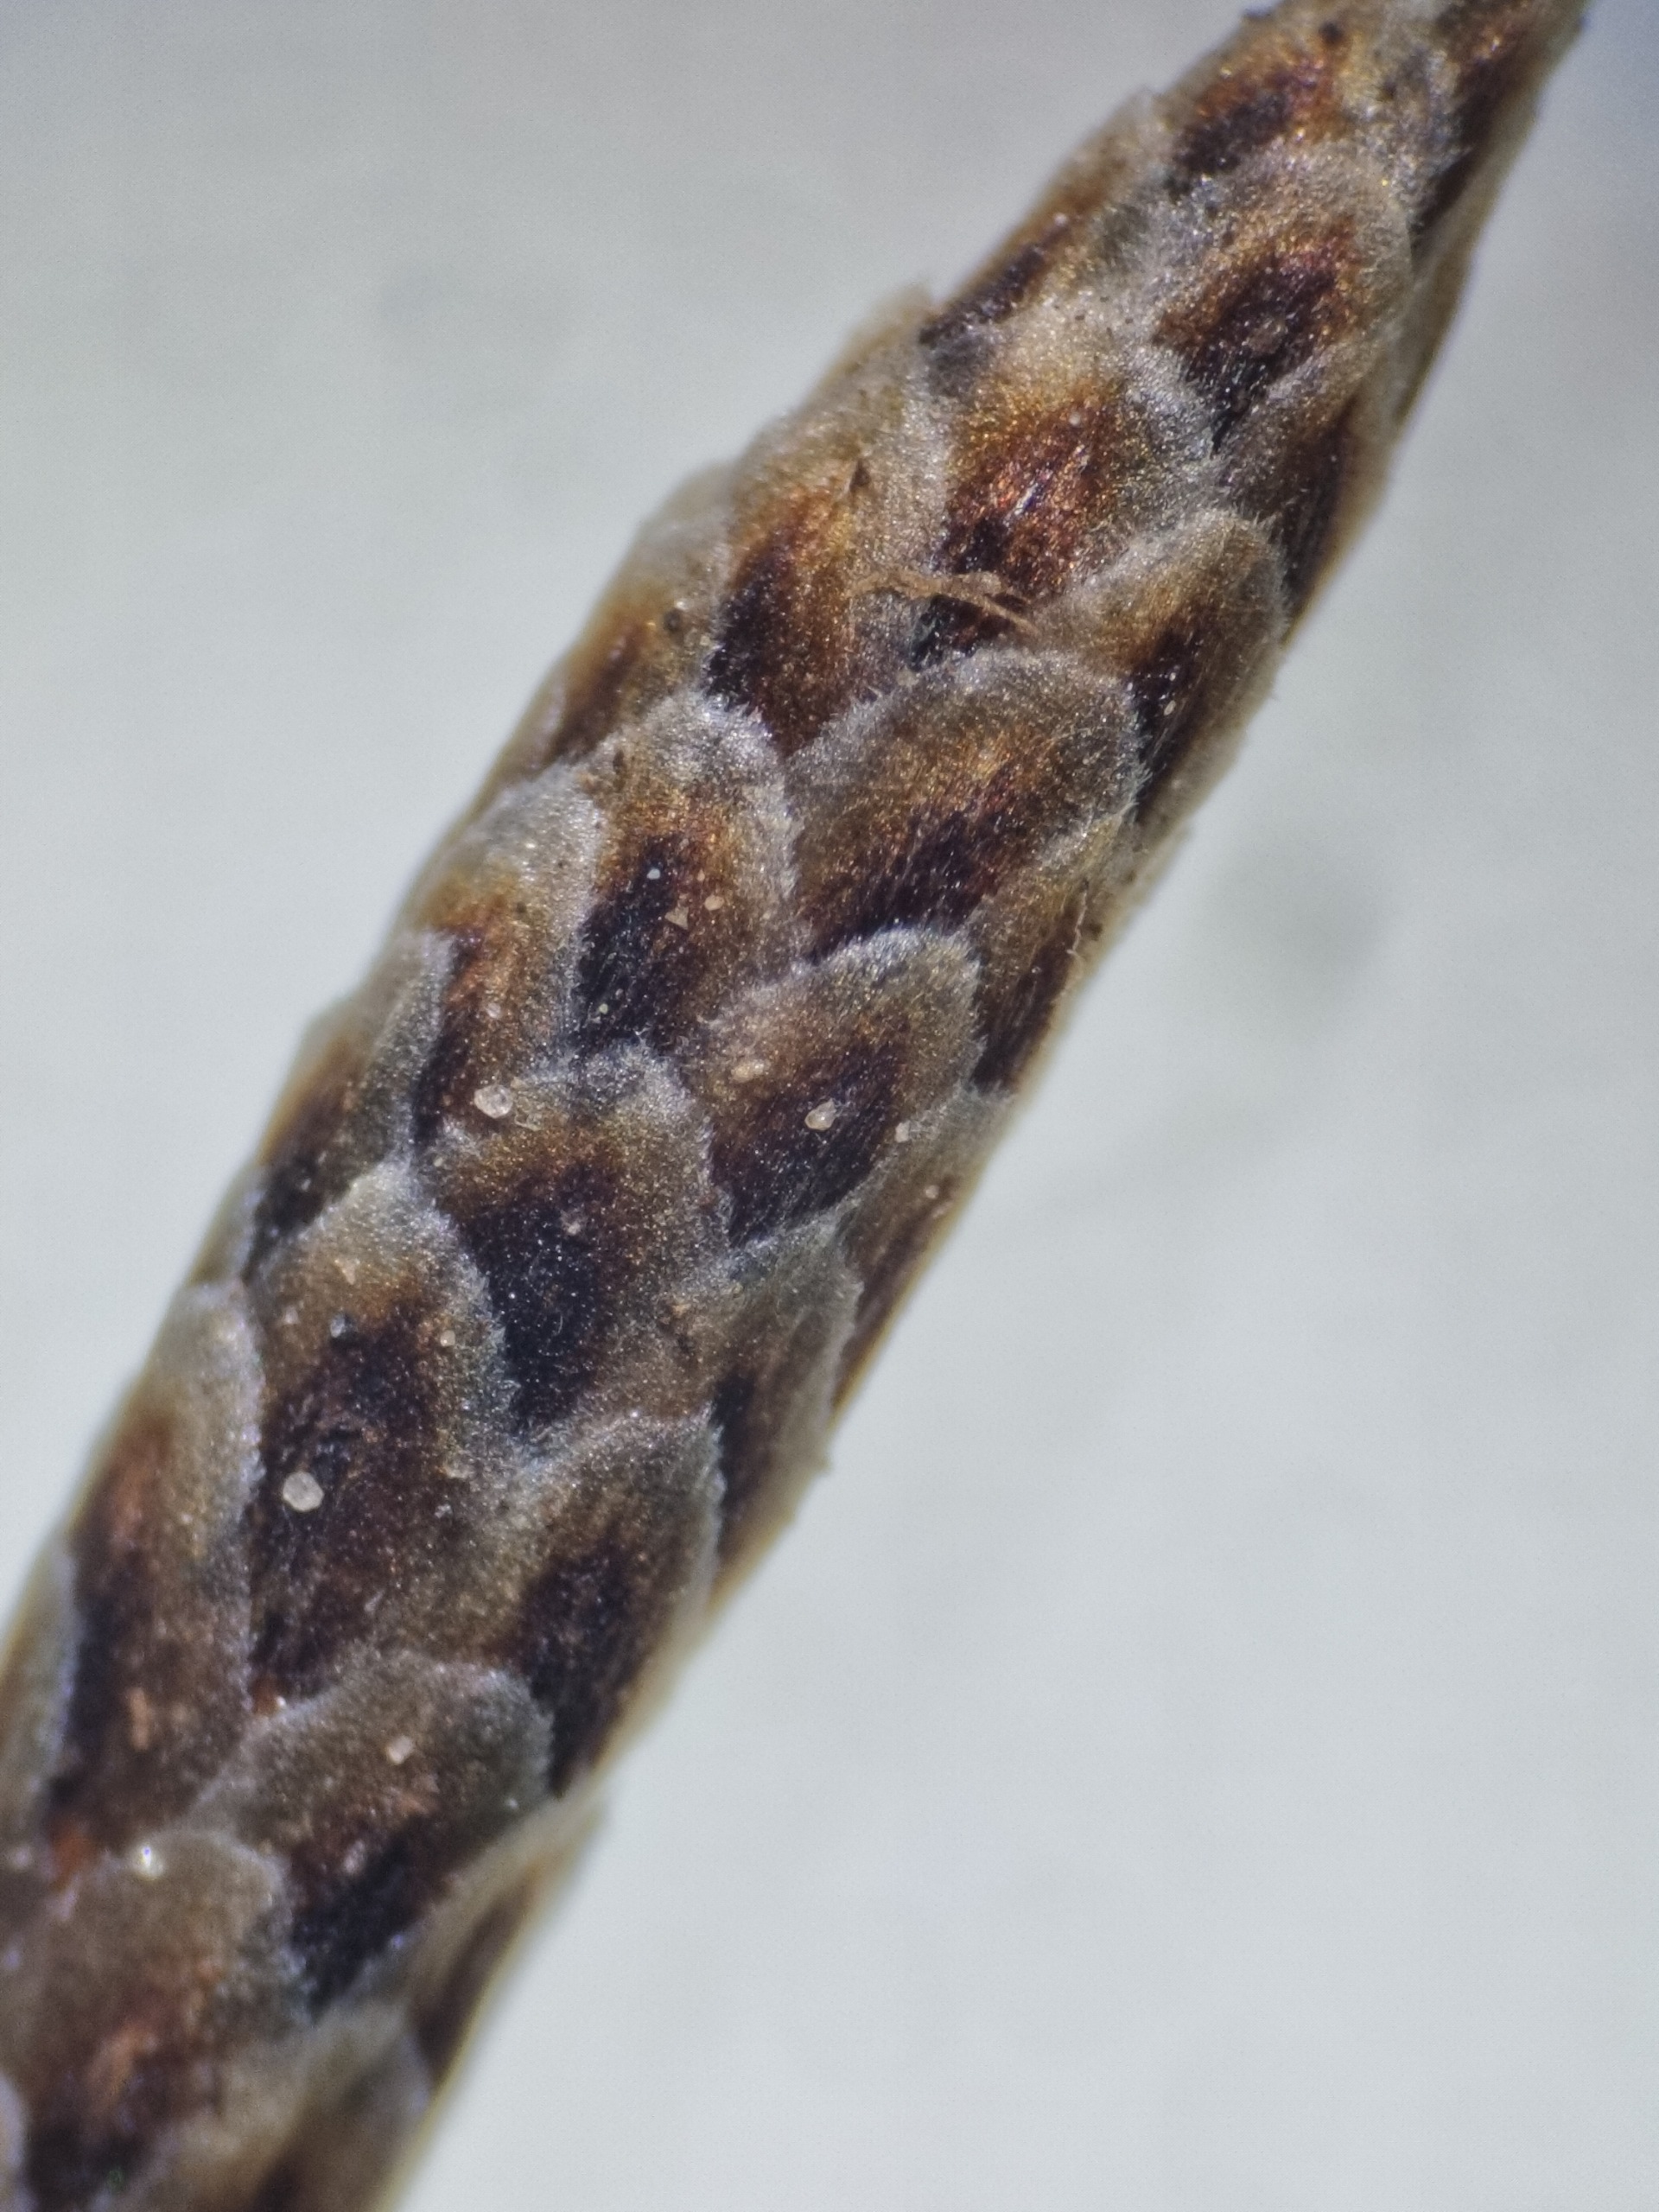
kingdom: Plantae
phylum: Tracheophyta
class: Liliopsida
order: Poales
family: Cyperaceae
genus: Carex
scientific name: Carex ericetorum
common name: Lyng-star
